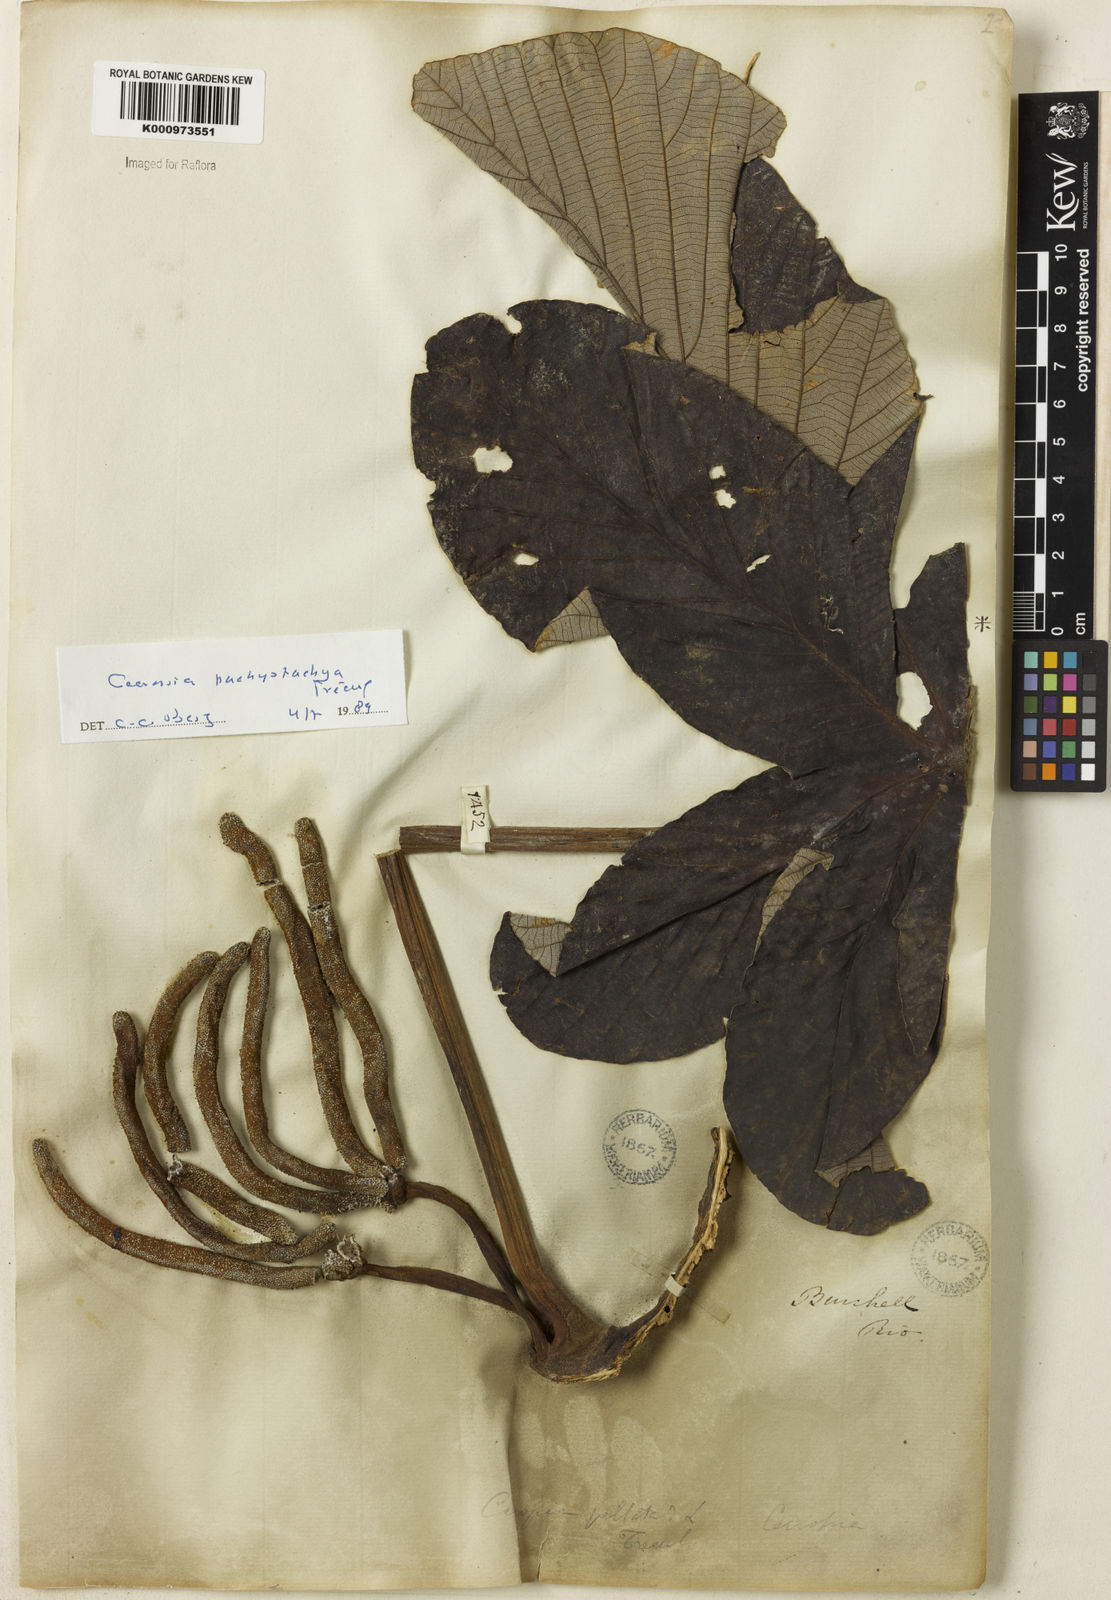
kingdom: Plantae
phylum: Tracheophyta
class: Magnoliopsida
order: Rosales
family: Urticaceae
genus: Cecropia
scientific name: Cecropia
